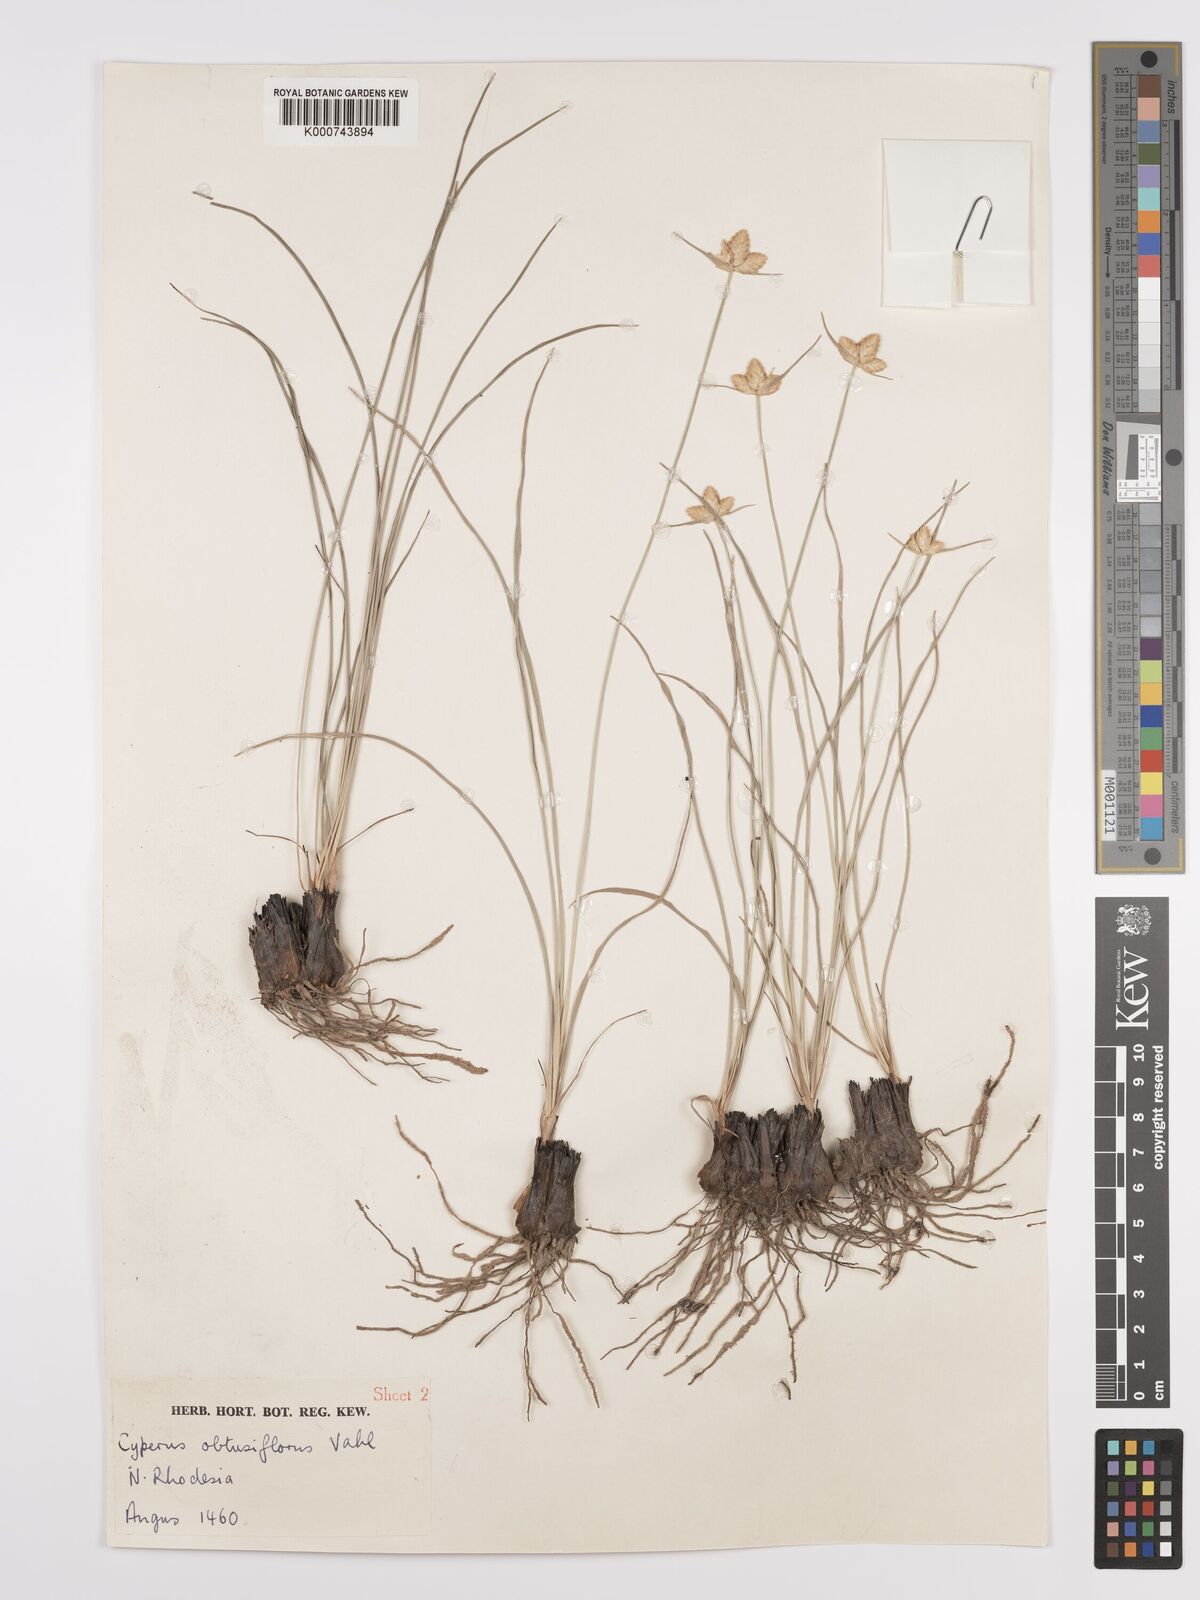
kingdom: Plantae
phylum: Tracheophyta
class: Liliopsida
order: Poales
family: Cyperaceae
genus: Cyperus
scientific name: Cyperus margaritaceus
